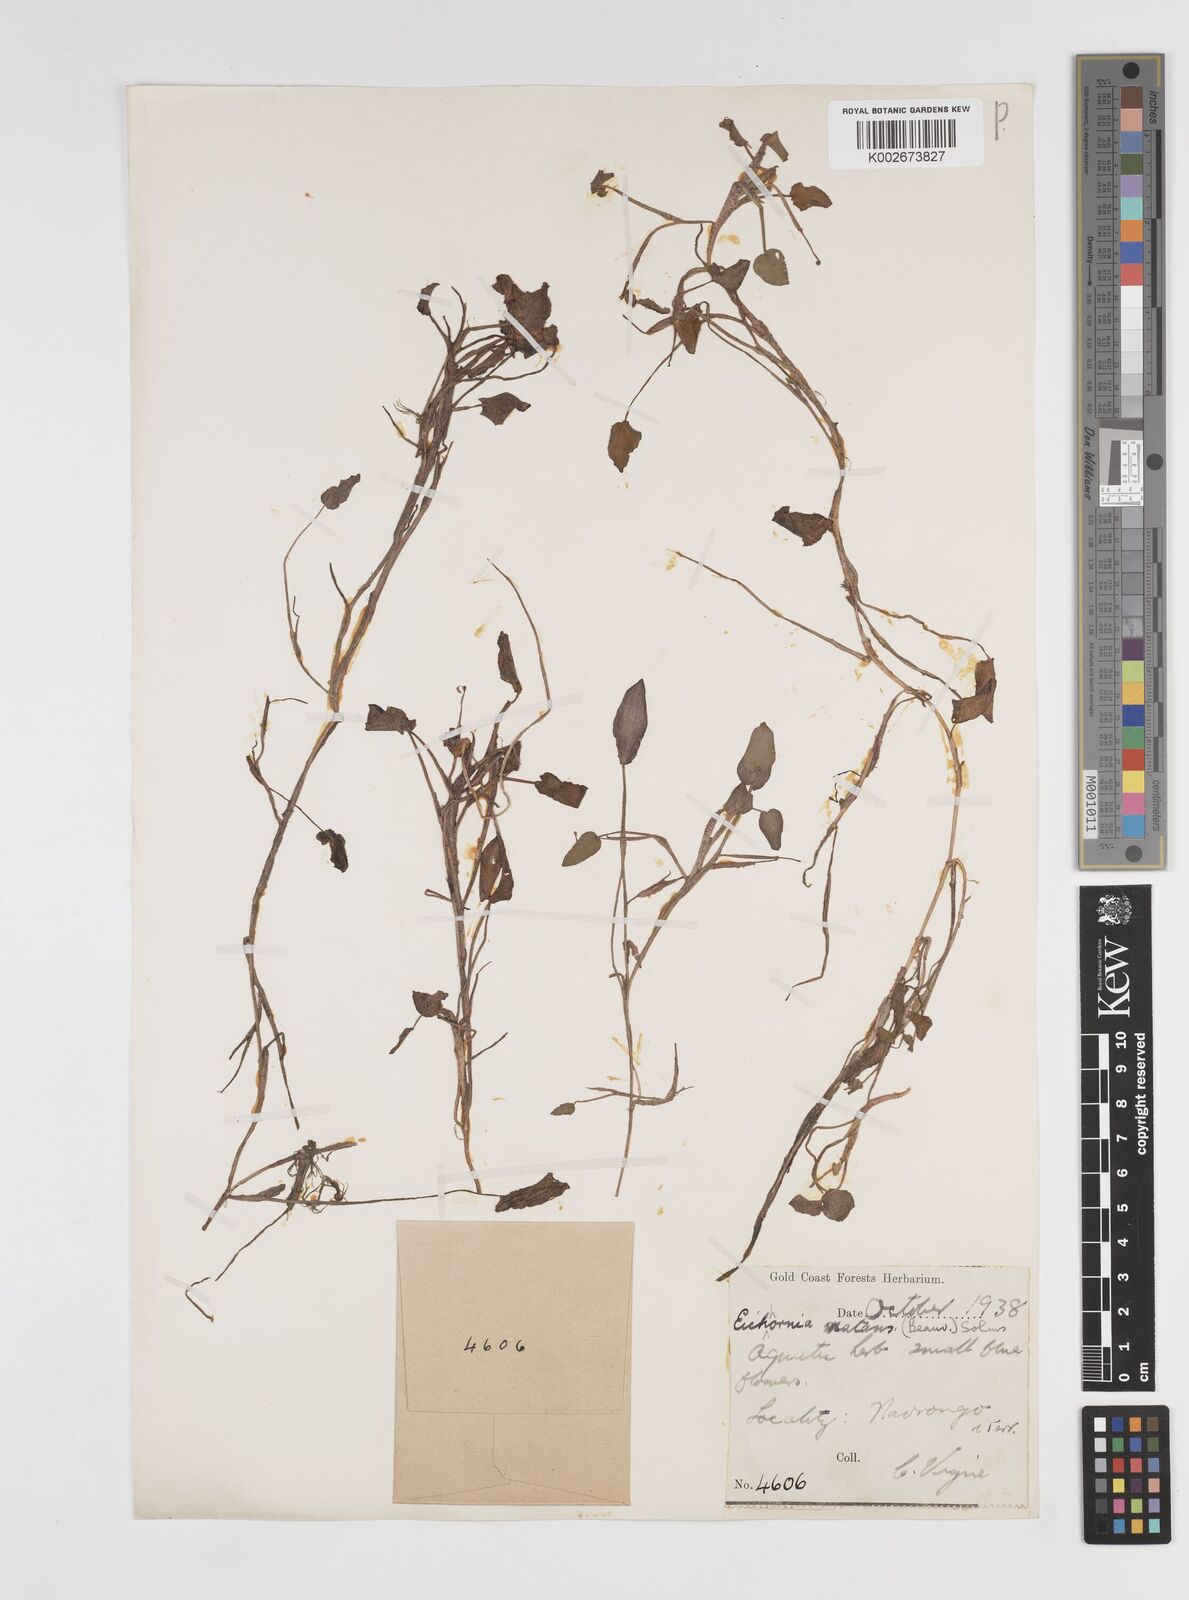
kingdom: Plantae
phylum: Tracheophyta
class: Liliopsida
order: Commelinales
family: Pontederiaceae
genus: Pontederia
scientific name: Pontederia diversifolia
